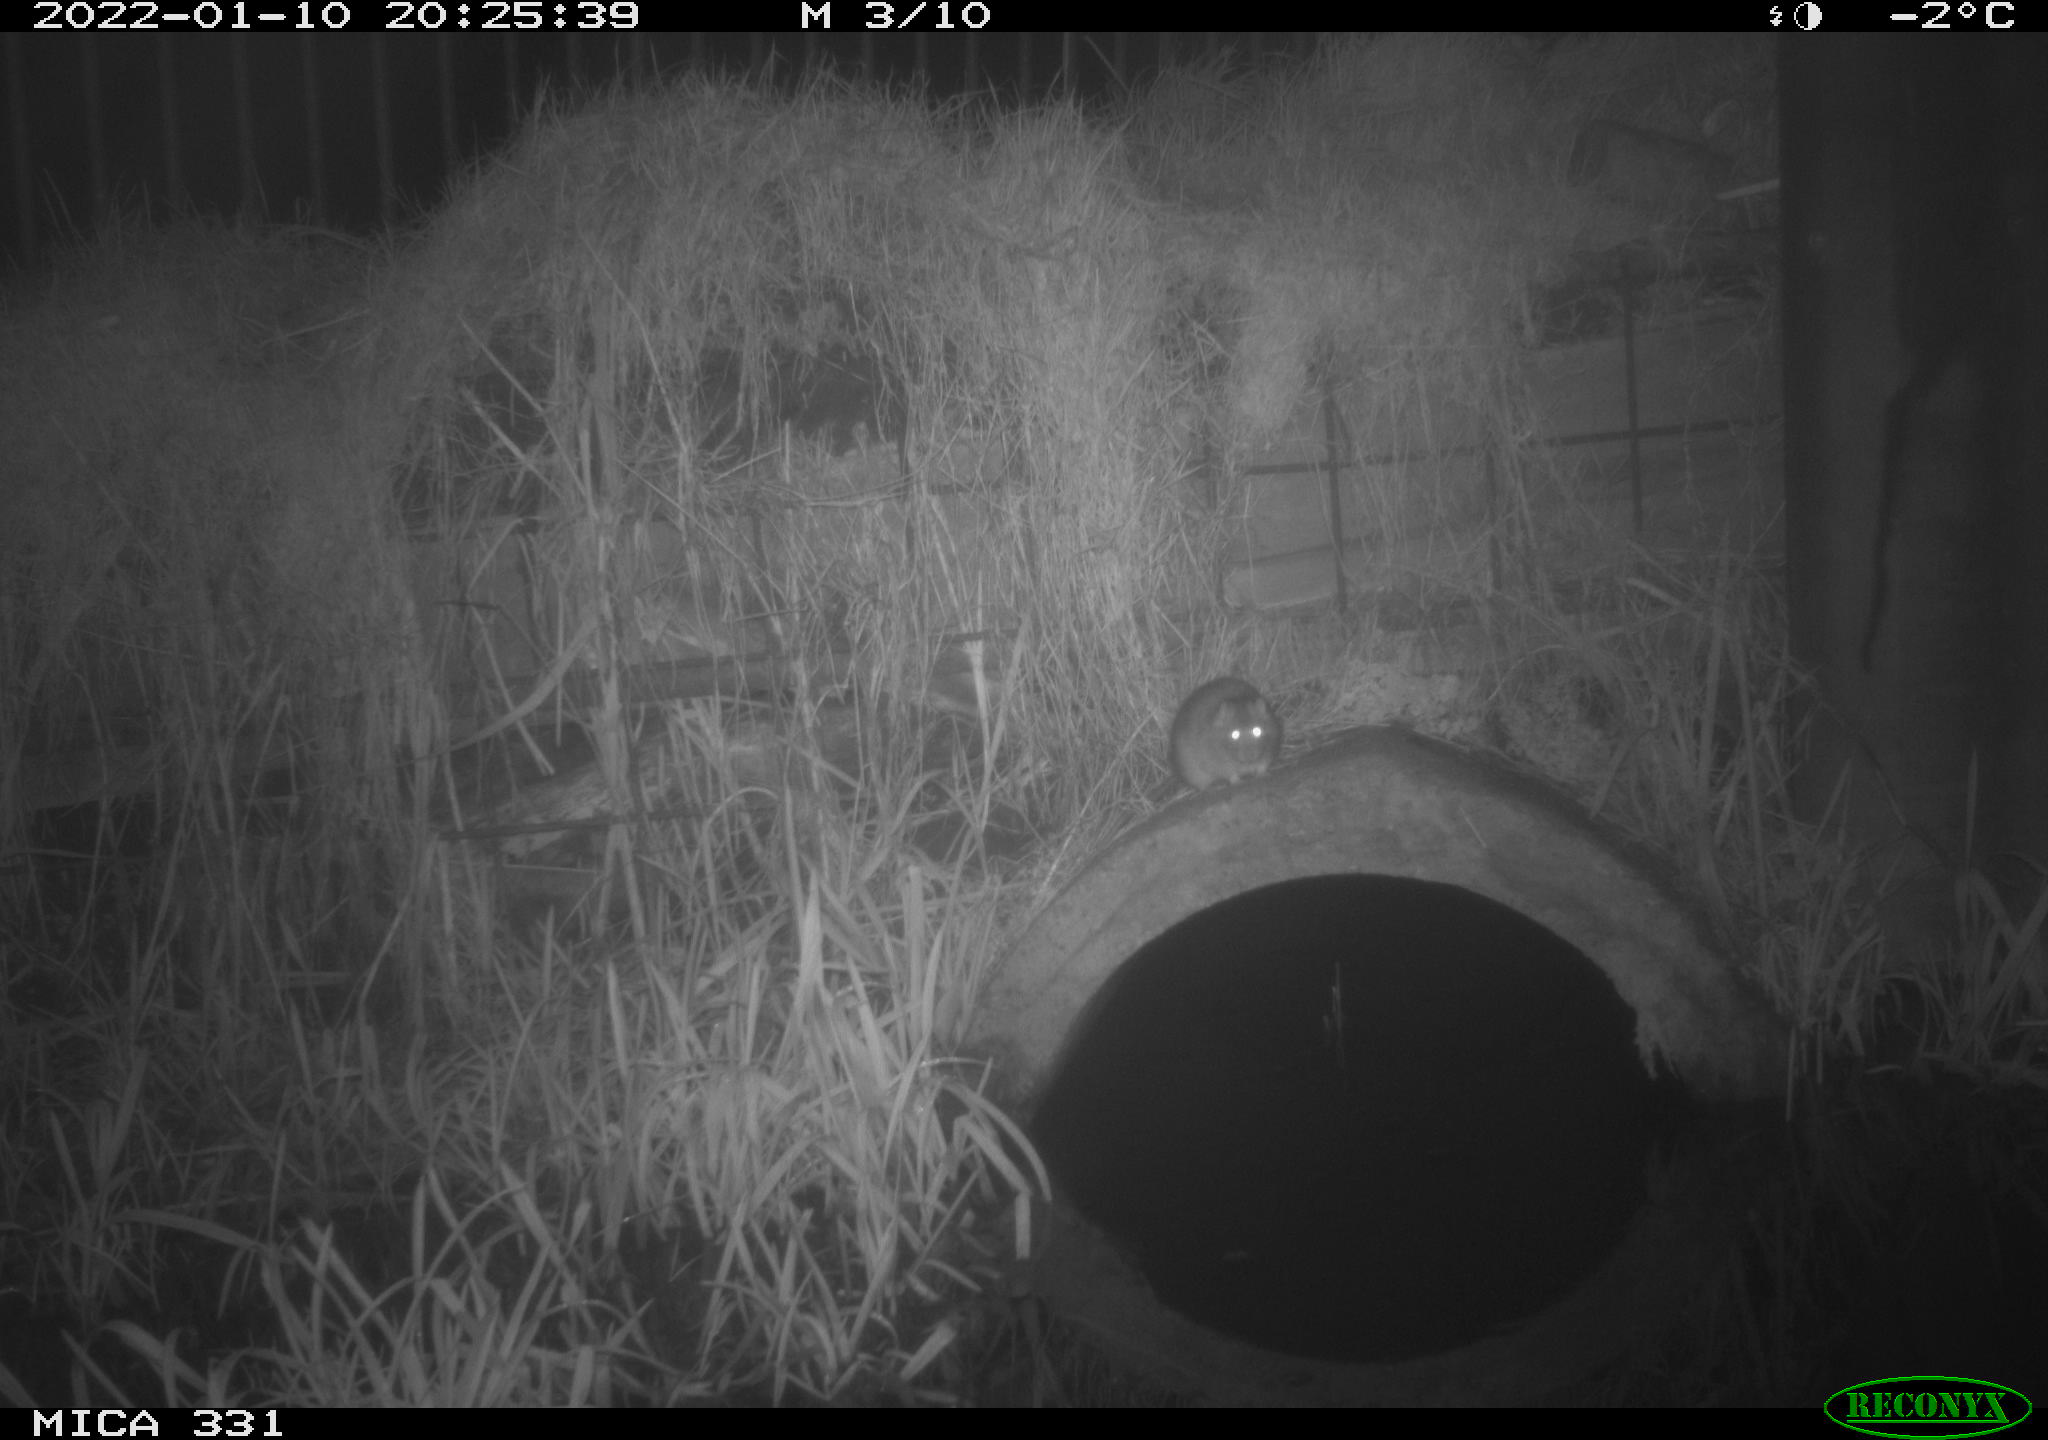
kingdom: Animalia
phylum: Chordata
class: Mammalia
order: Rodentia
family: Muridae
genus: Rattus
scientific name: Rattus norvegicus
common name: Brown rat
